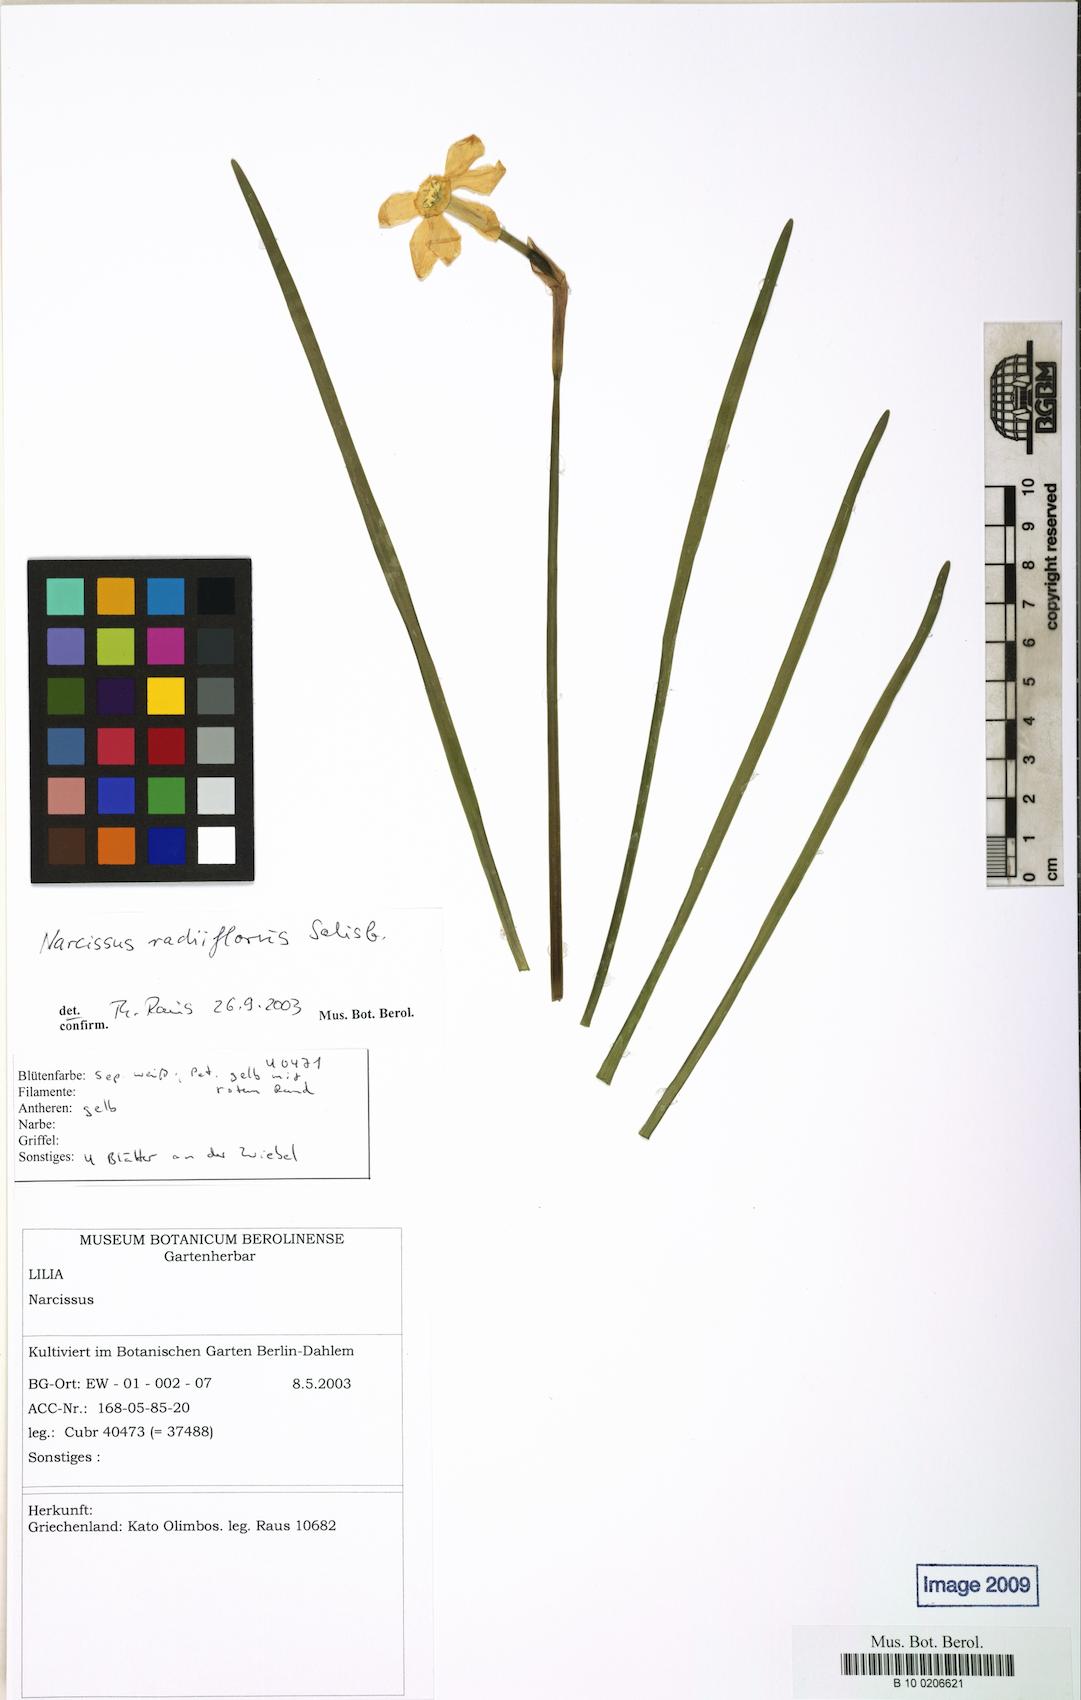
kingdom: Plantae
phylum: Tracheophyta
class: Liliopsida
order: Asparagales
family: Amaryllidaceae
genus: Narcissus
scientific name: Narcissus poeticus
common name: Pheasant's-eye daffodil
